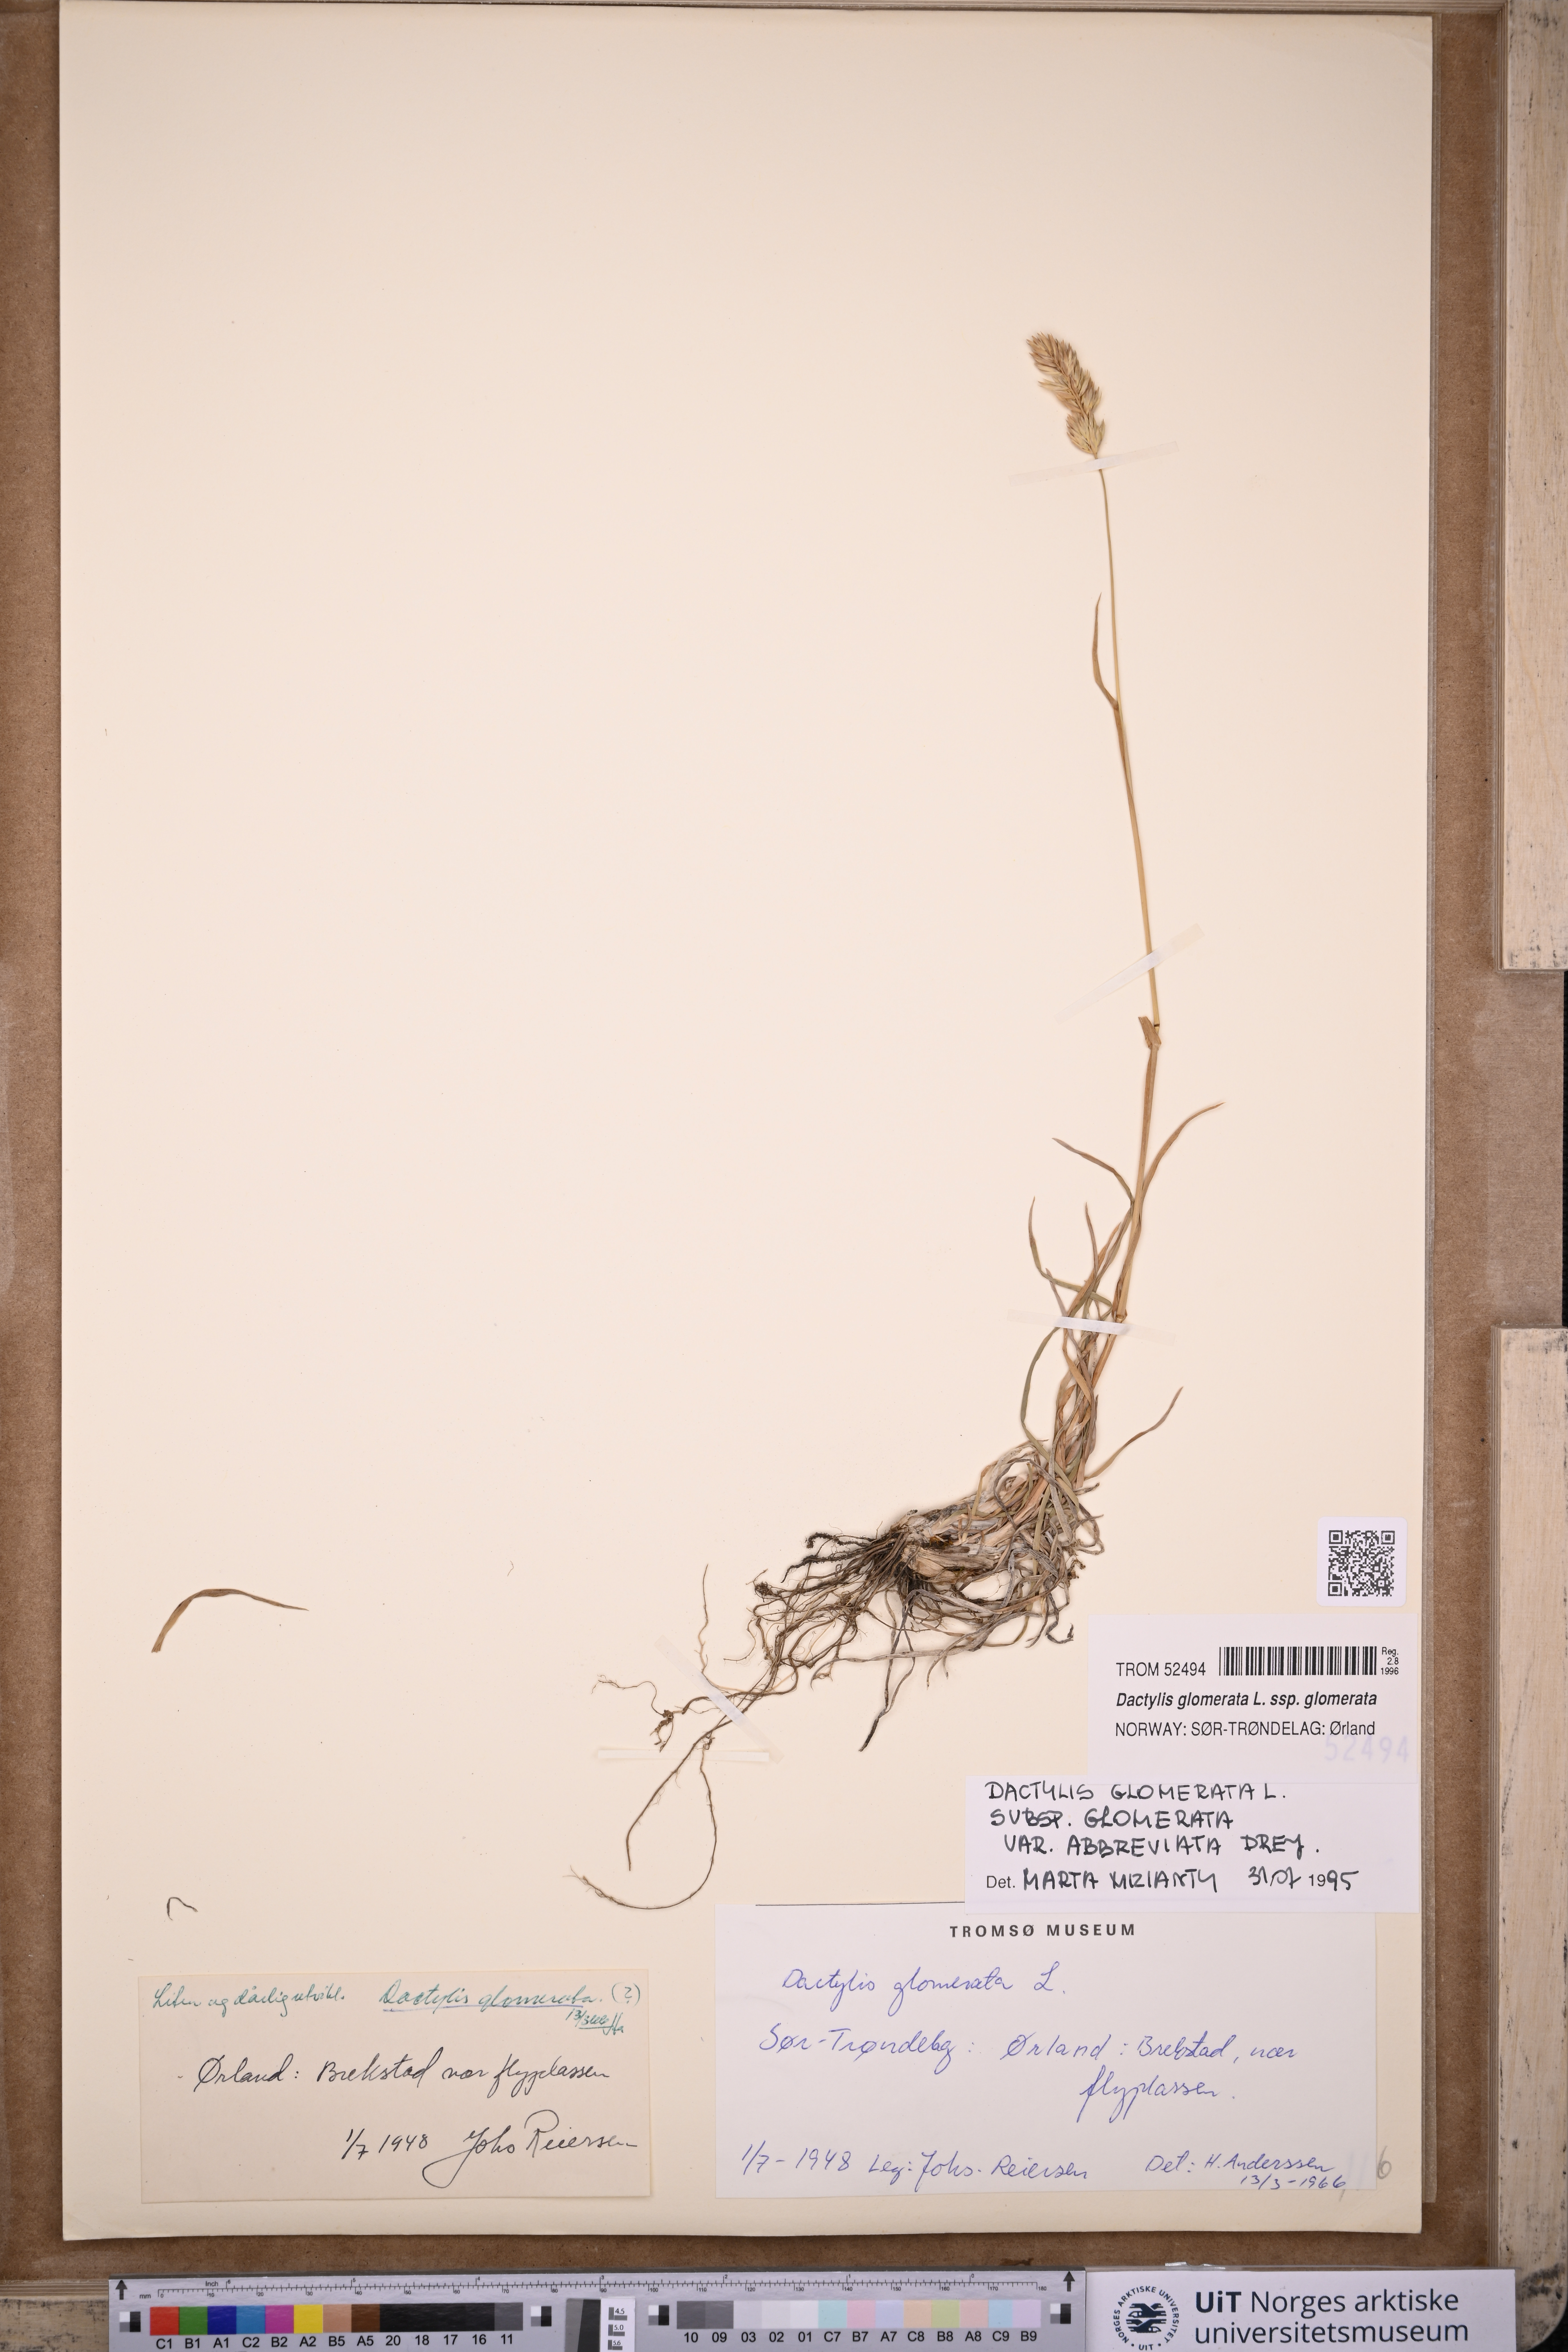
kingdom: Plantae
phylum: Tracheophyta
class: Liliopsida
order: Poales
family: Poaceae
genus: Dactylis
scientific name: Dactylis glomerata
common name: Orchardgrass
